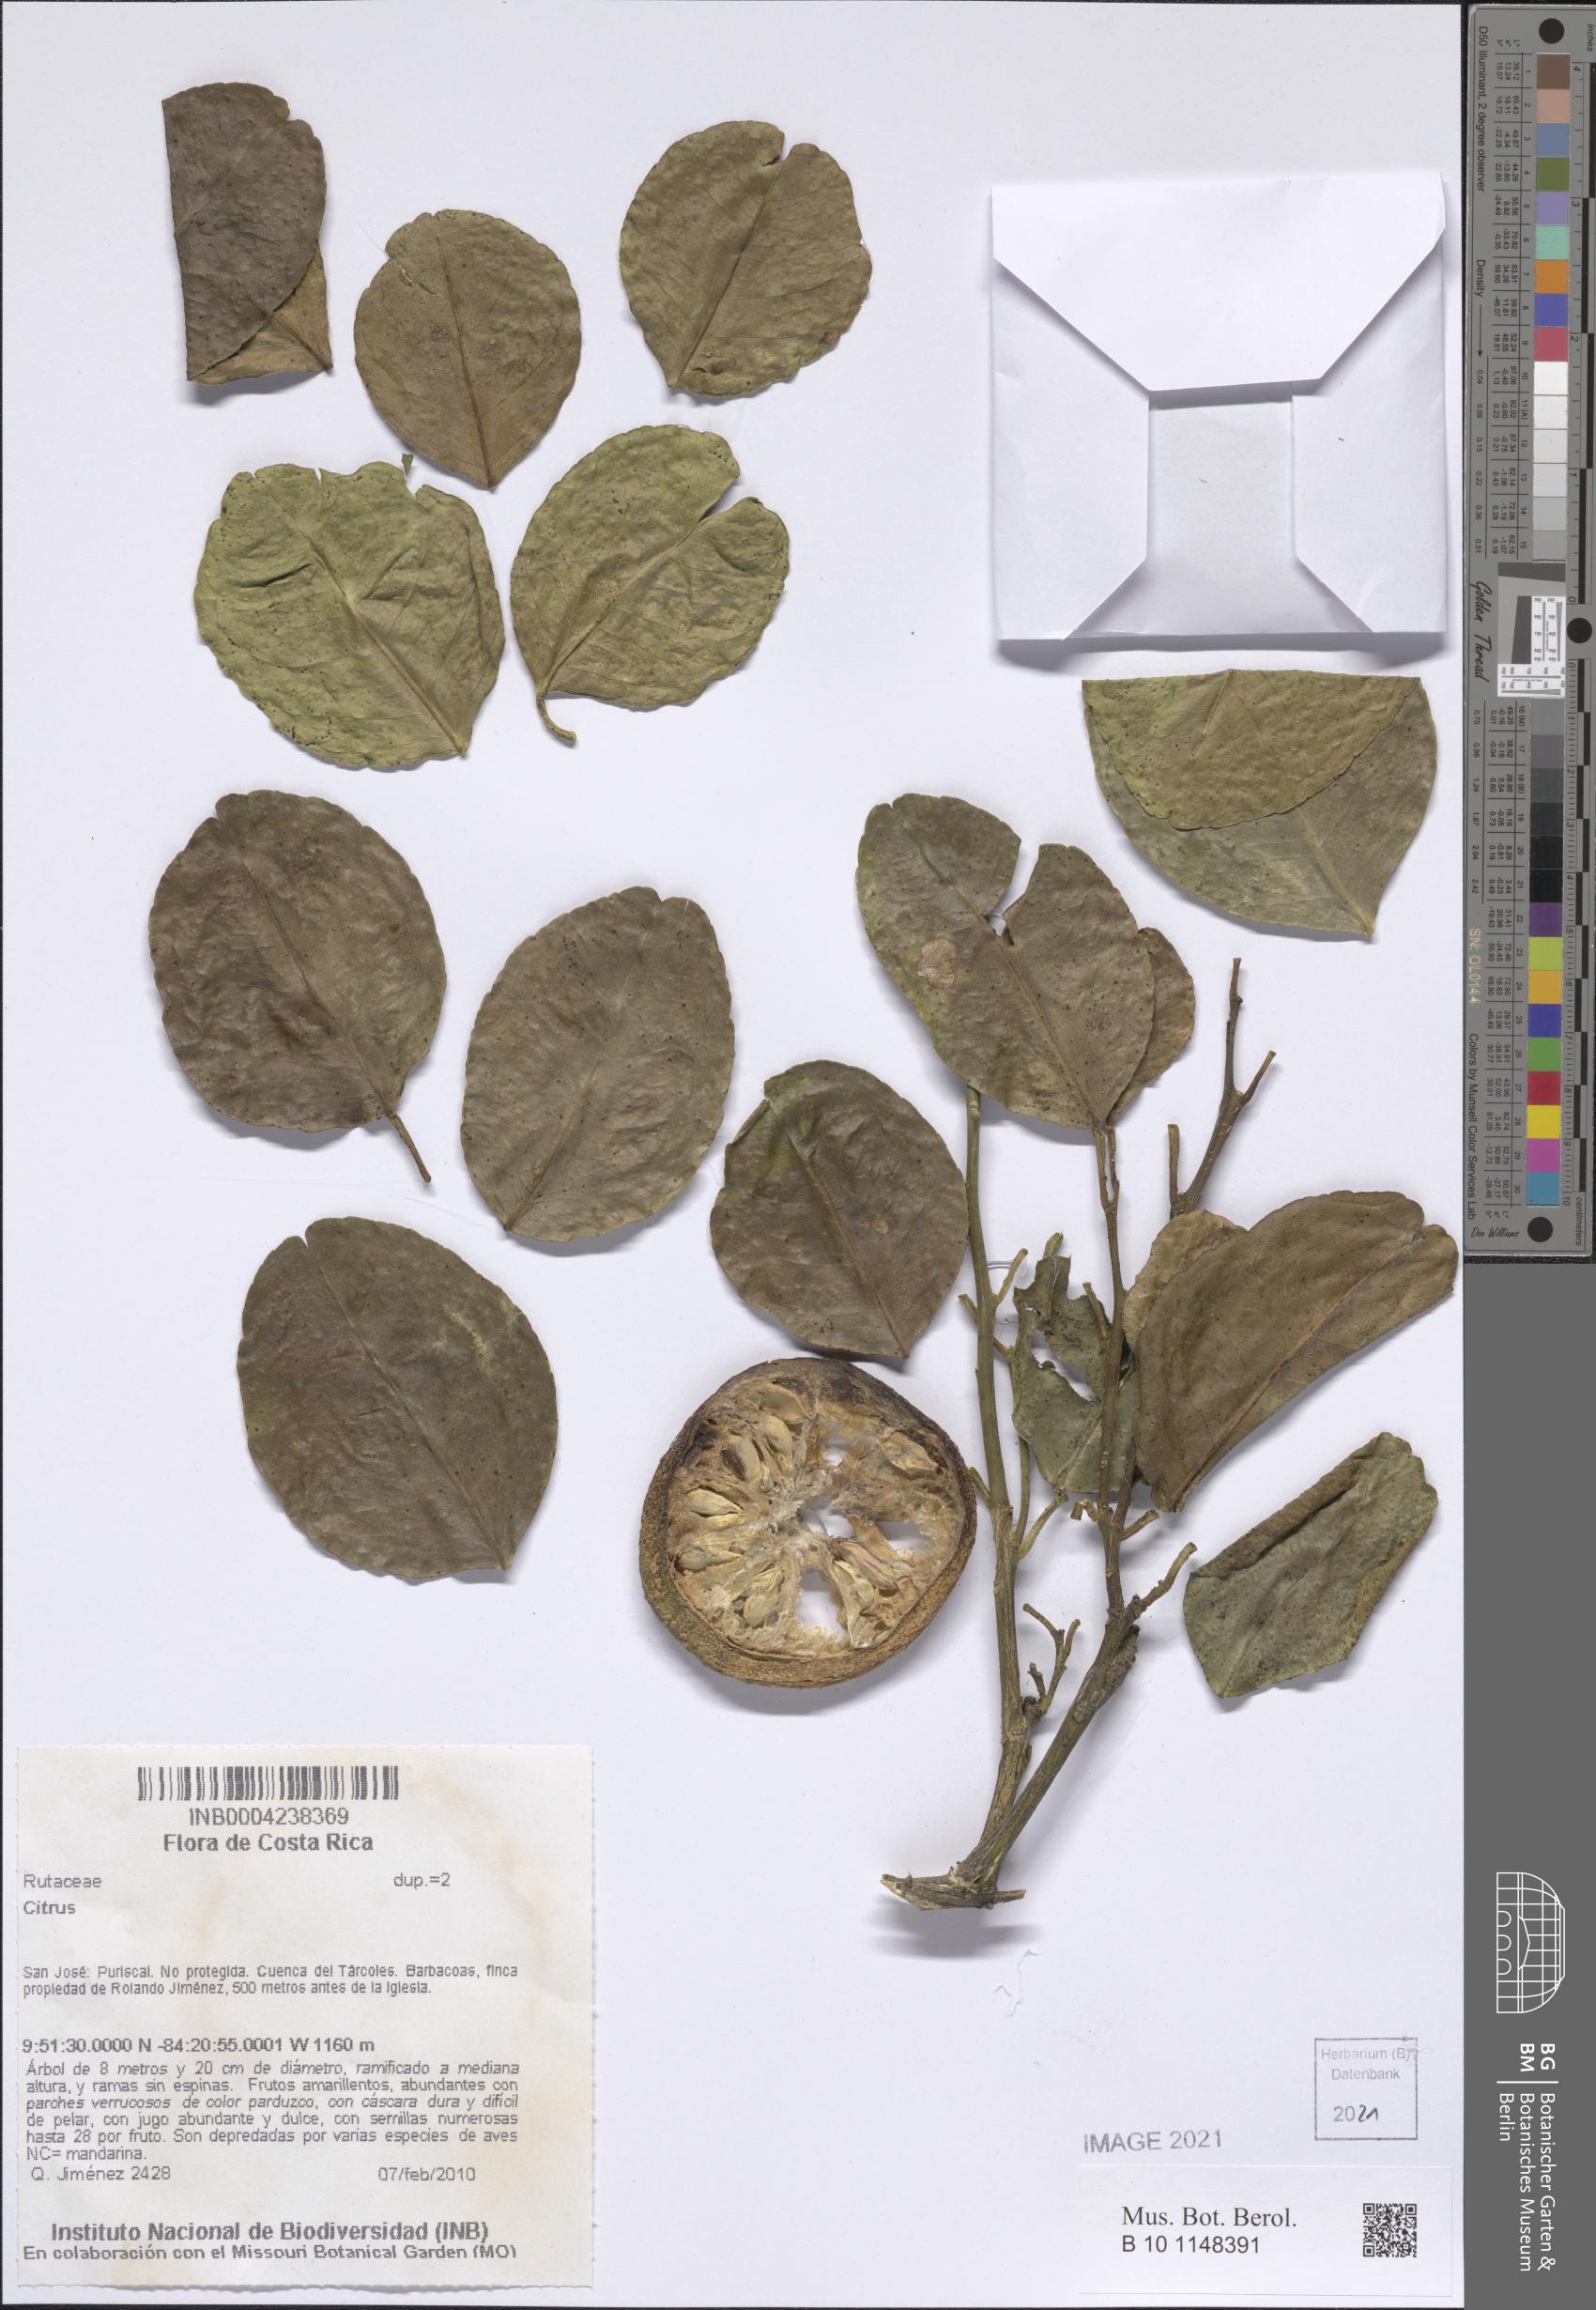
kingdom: Plantae
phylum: Tracheophyta
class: Magnoliopsida
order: Sapindales
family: Rutaceae
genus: Citrus
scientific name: Citrus
